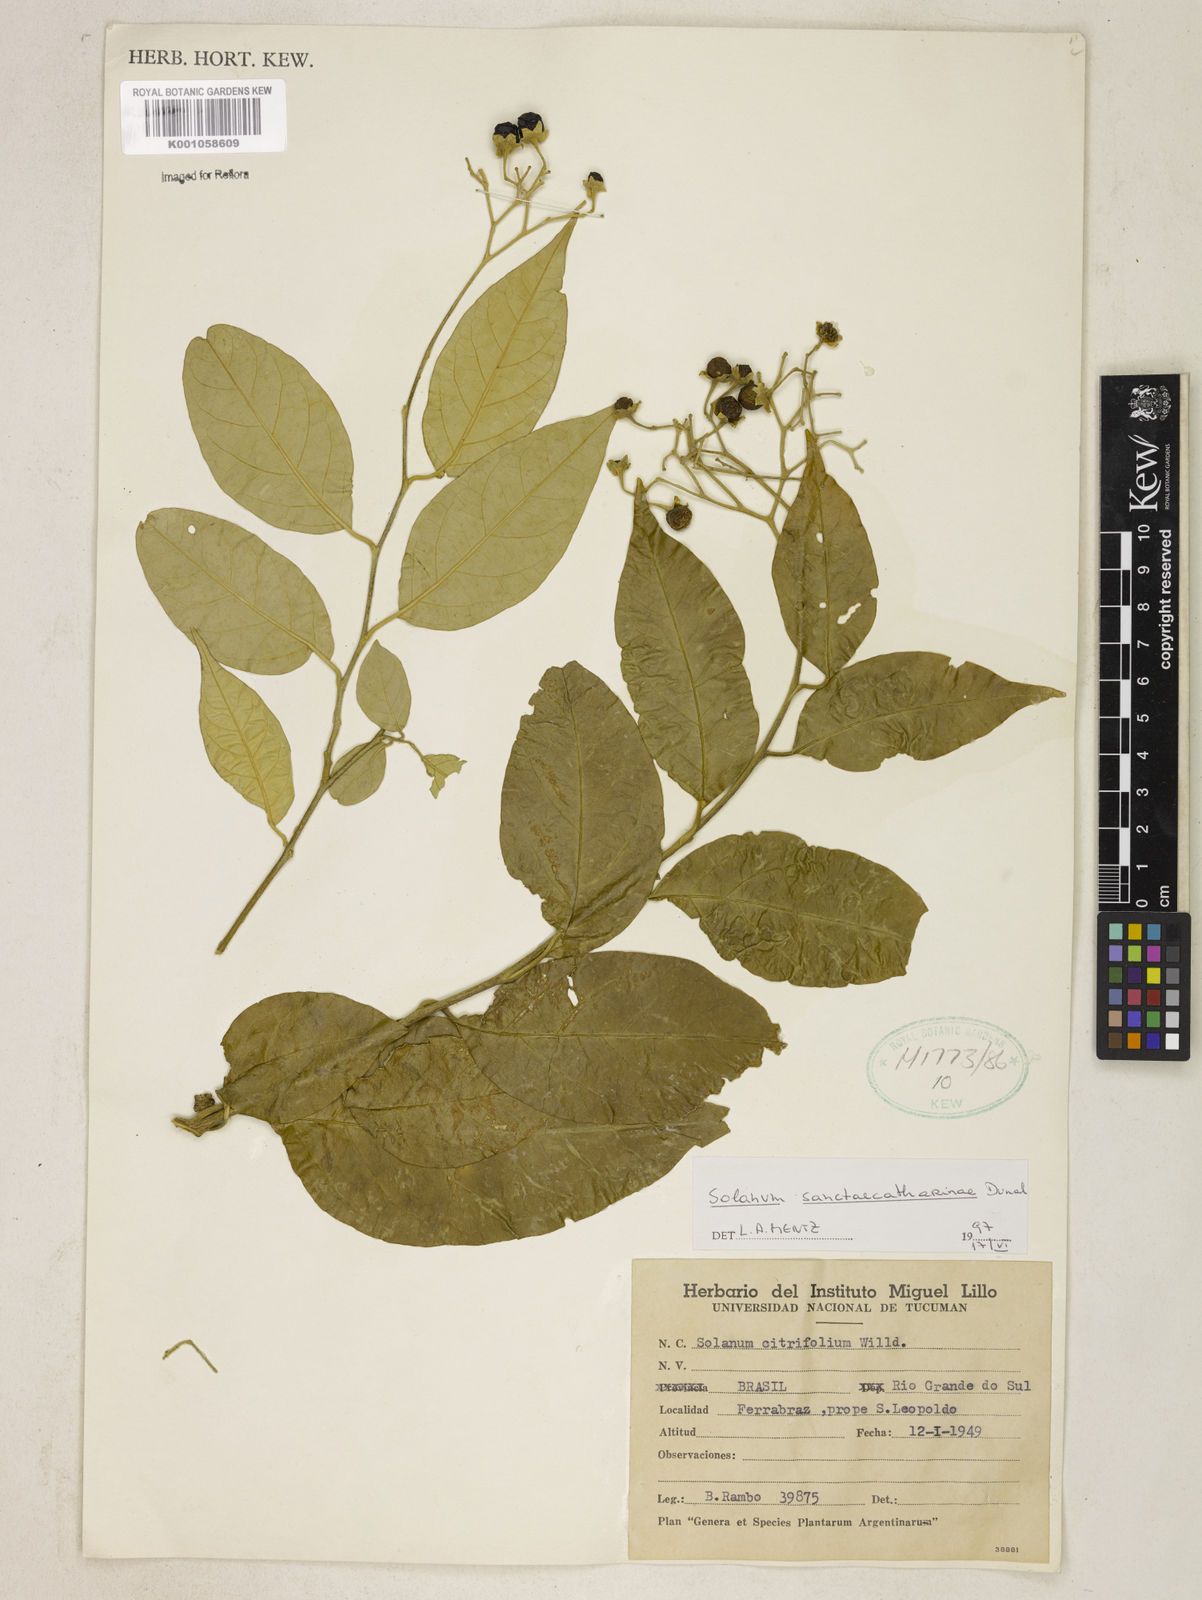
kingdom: Plantae
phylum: Tracheophyta
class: Magnoliopsida
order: Solanales
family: Solanaceae
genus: Solanum
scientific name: Solanum sanctae-catharinae
